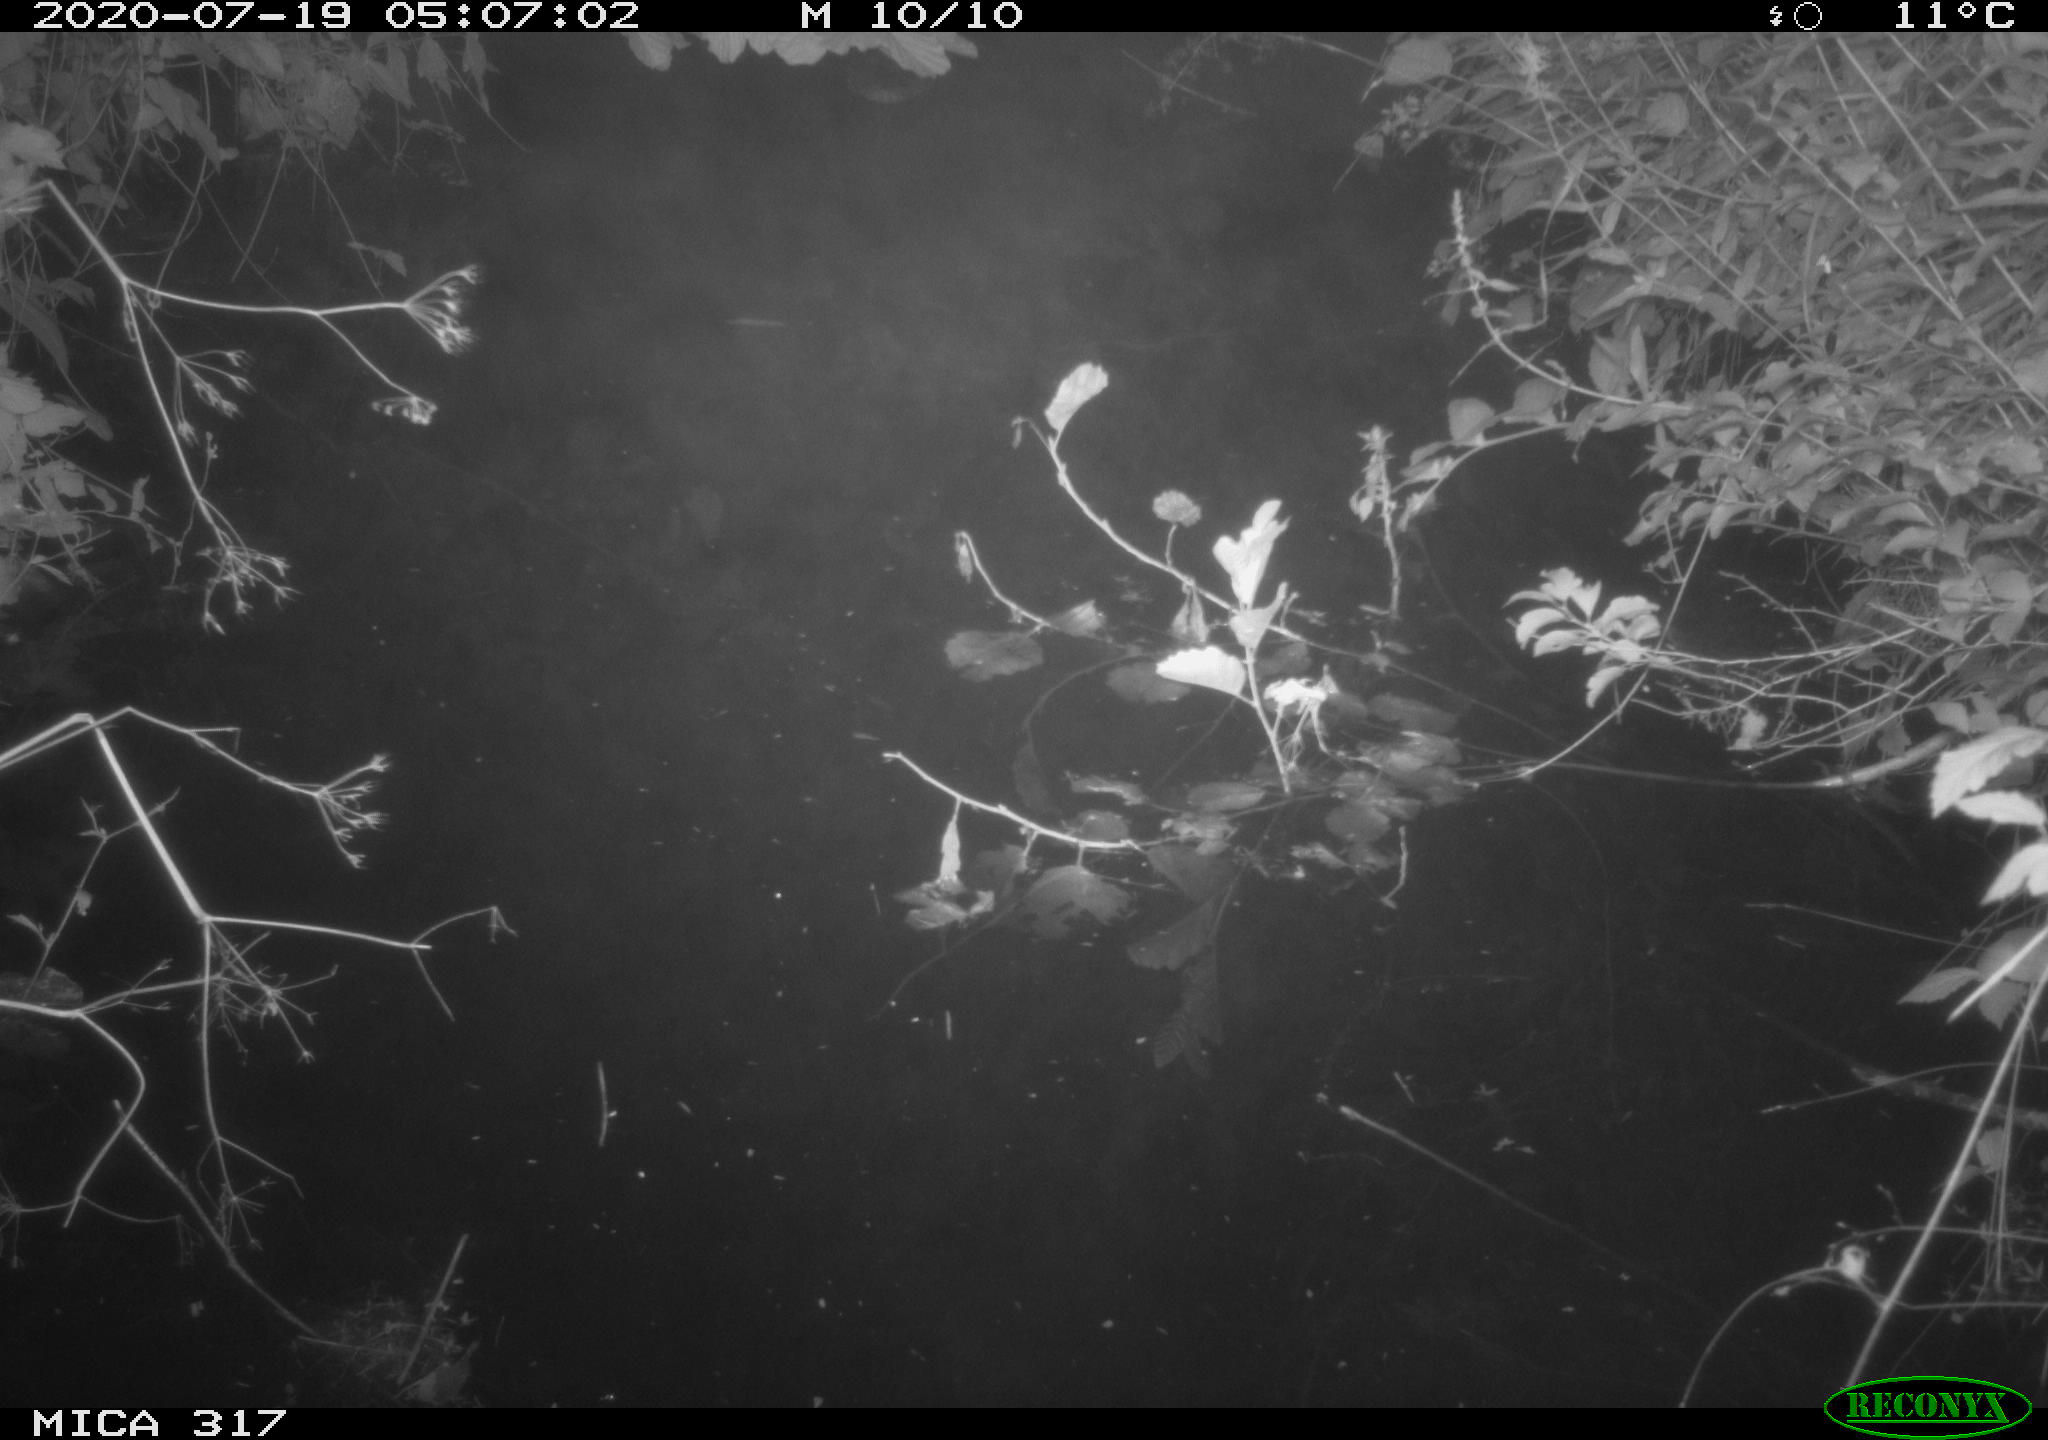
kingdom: Animalia
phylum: Chordata
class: Aves
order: Anseriformes
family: Anatidae
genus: Anas
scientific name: Anas platyrhynchos
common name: Mallard
